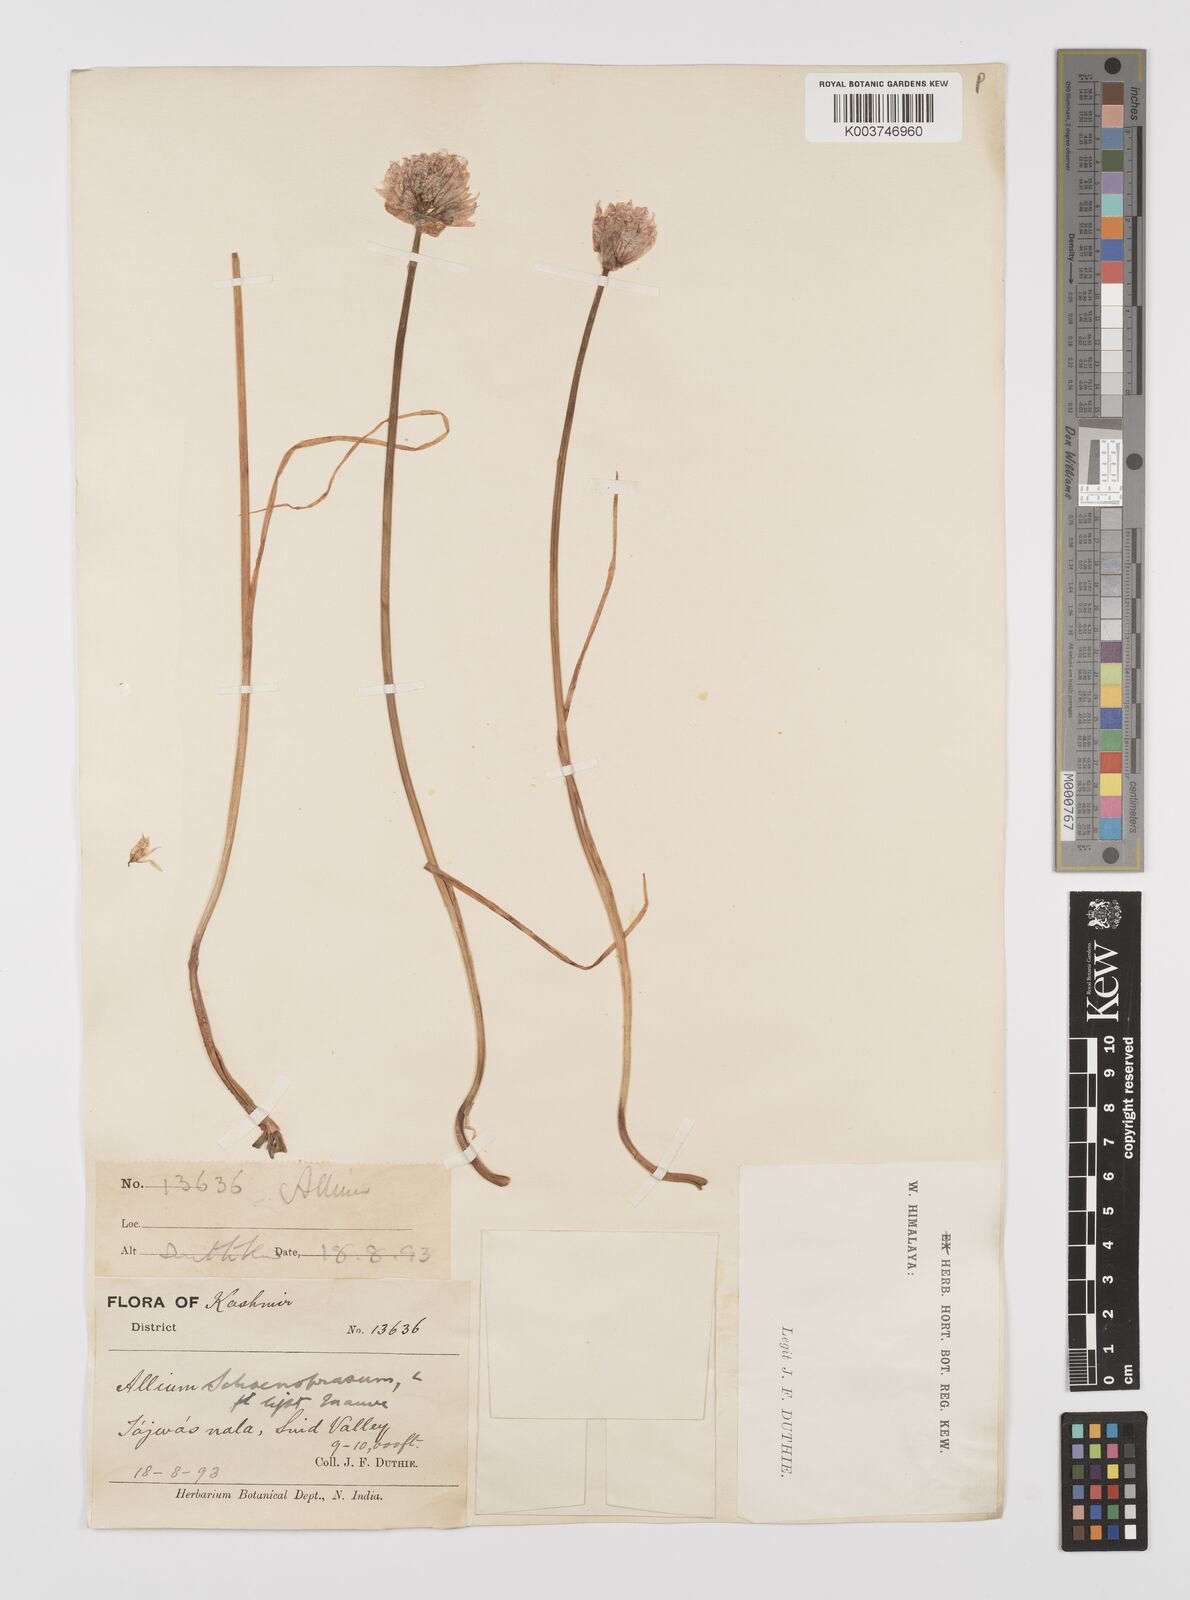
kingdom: Plantae
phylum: Tracheophyta
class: Liliopsida
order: Asparagales
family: Amaryllidaceae
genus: Allium
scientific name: Allium
